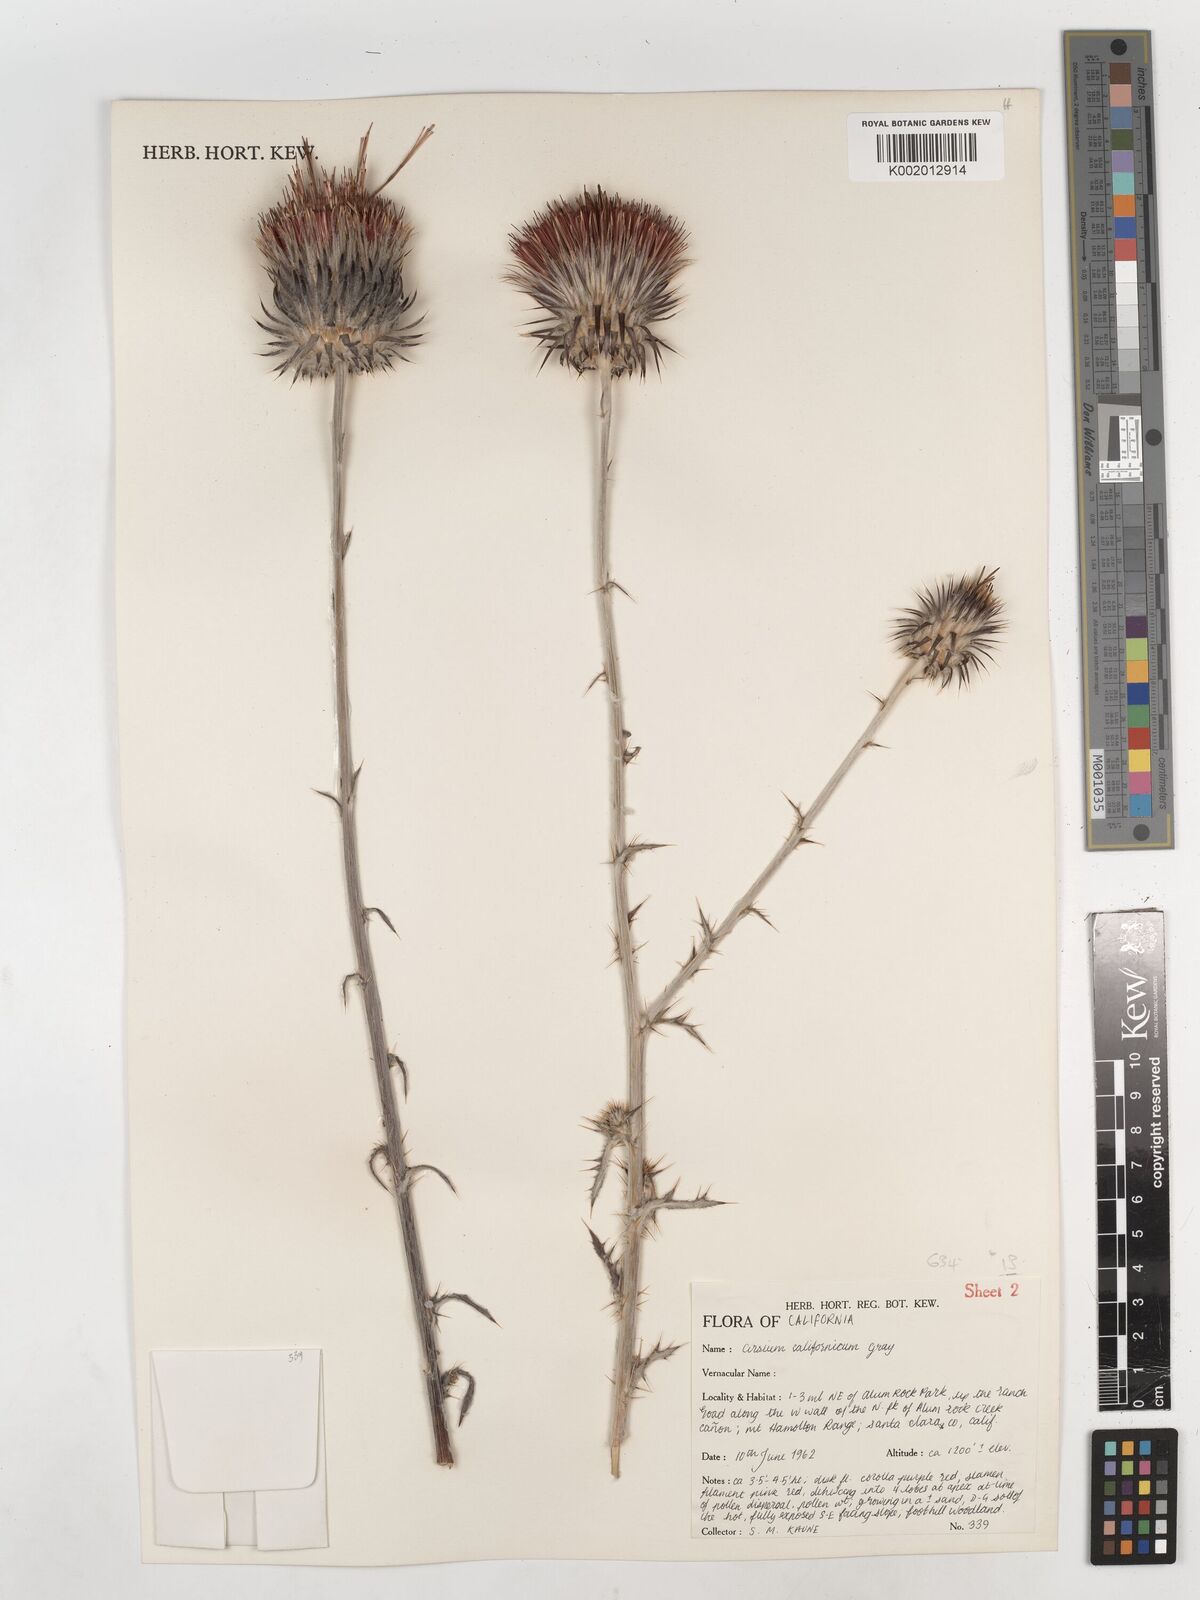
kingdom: Plantae
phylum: Tracheophyta
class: Magnoliopsida
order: Asterales
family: Asteraceae
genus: Cirsium
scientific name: Cirsium occidentale
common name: Western thistle
